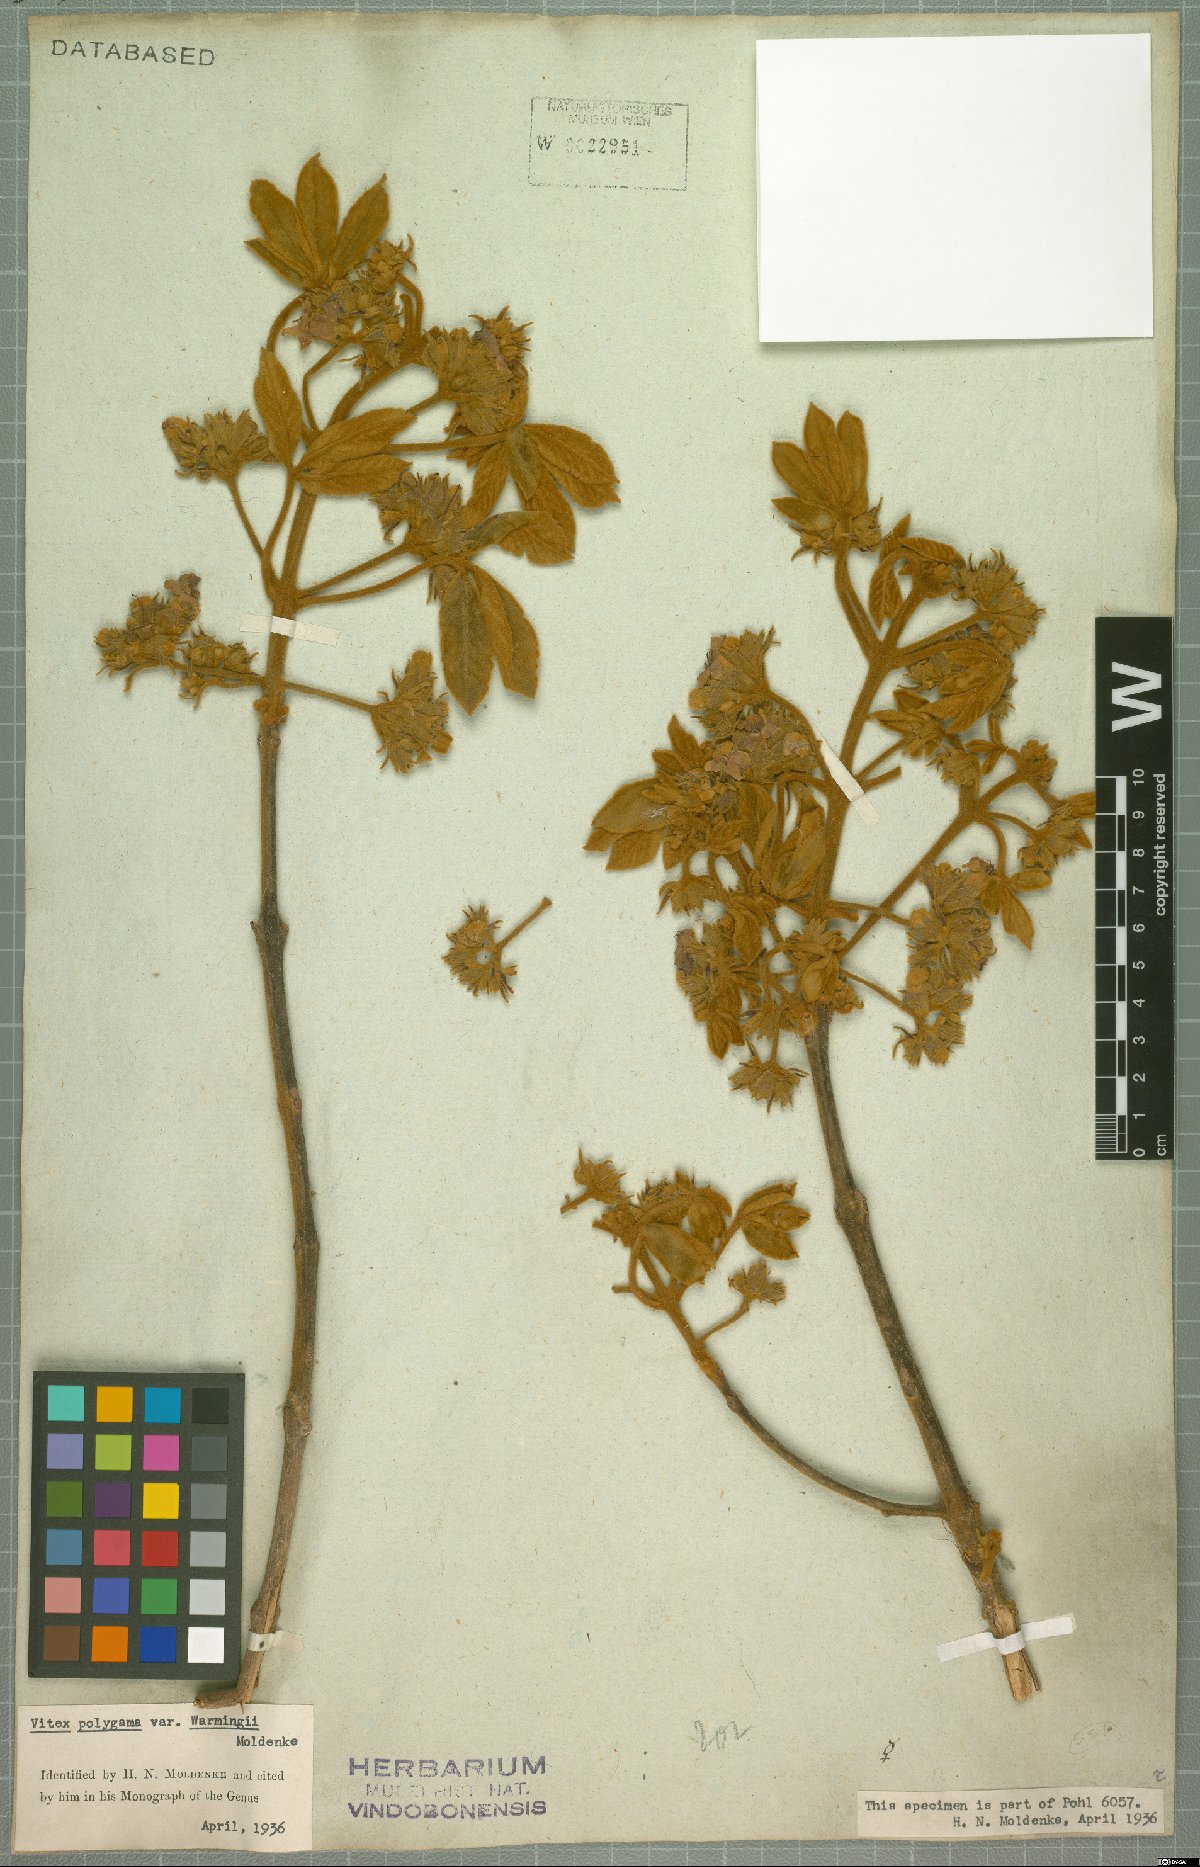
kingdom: Plantae
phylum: Tracheophyta
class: Magnoliopsida
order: Lamiales
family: Lamiaceae
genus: Vitex
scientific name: Vitex polygama
